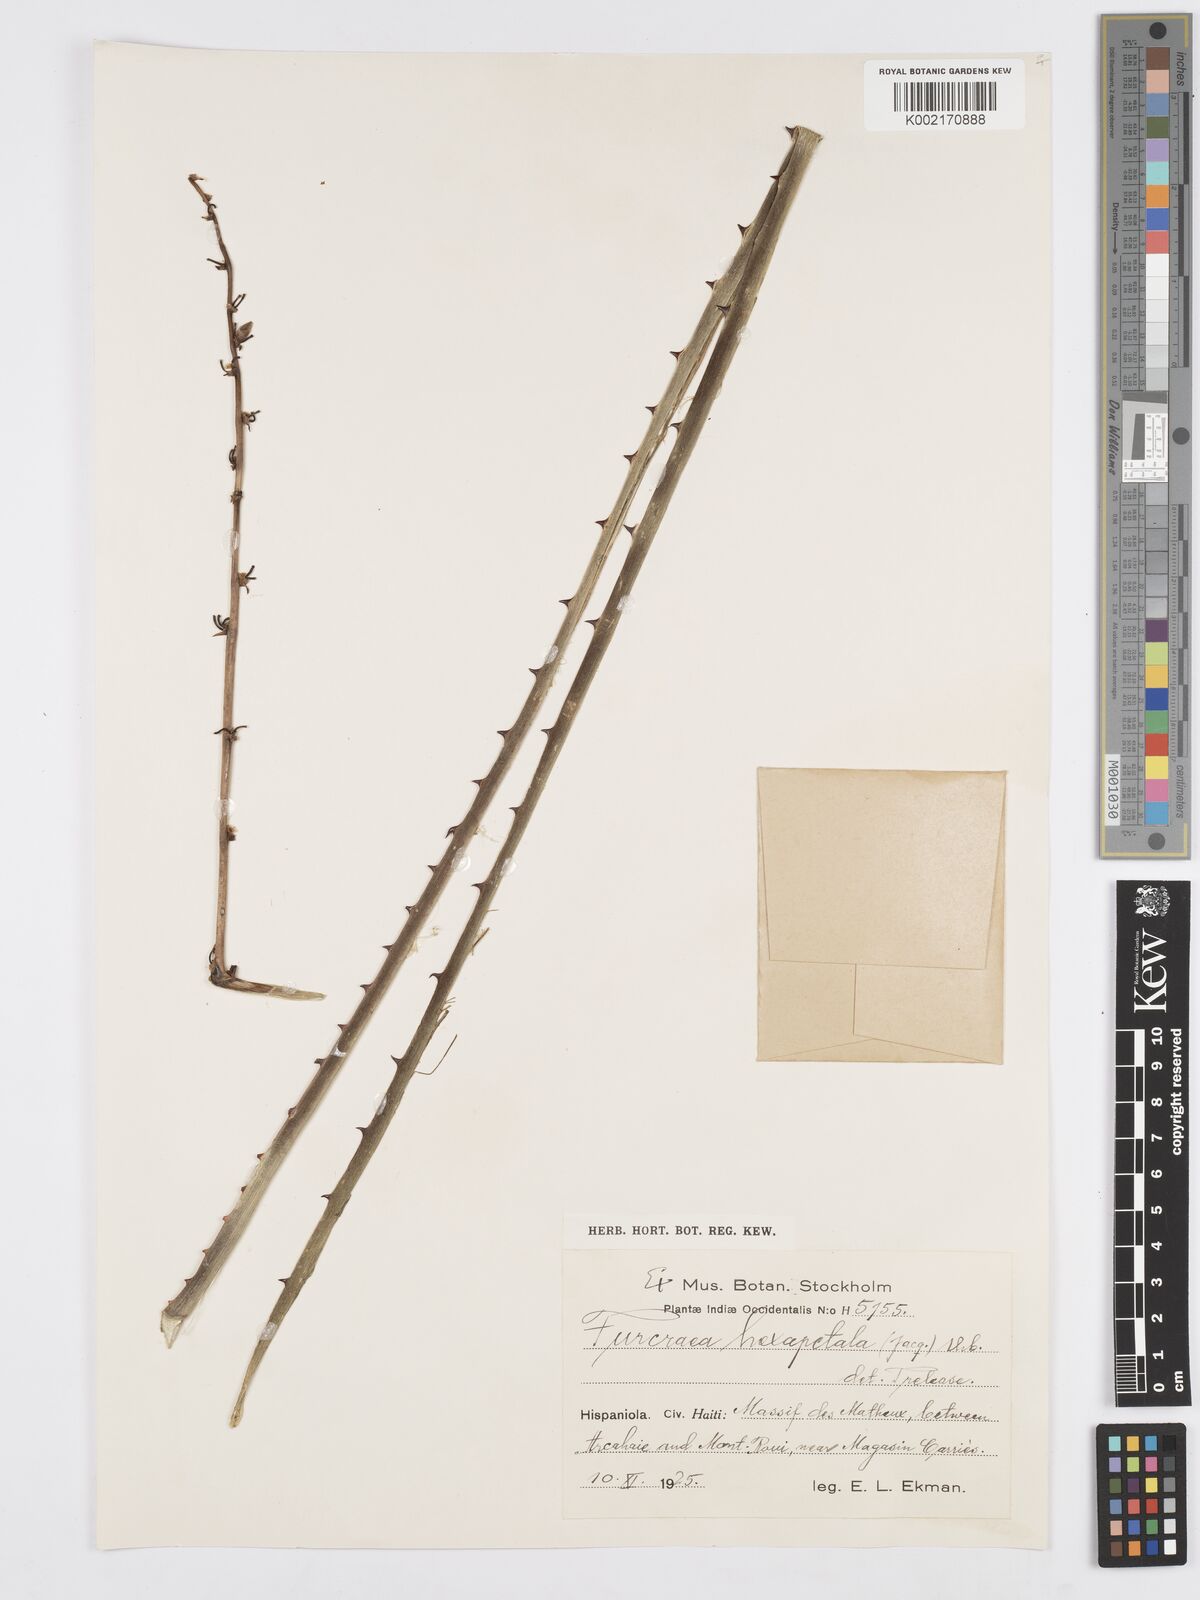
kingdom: Plantae
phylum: Tracheophyta
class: Liliopsida
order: Asparagales
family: Asparagaceae
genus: Furcraea
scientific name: Furcraea hexapetala
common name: Cuban-hemp
